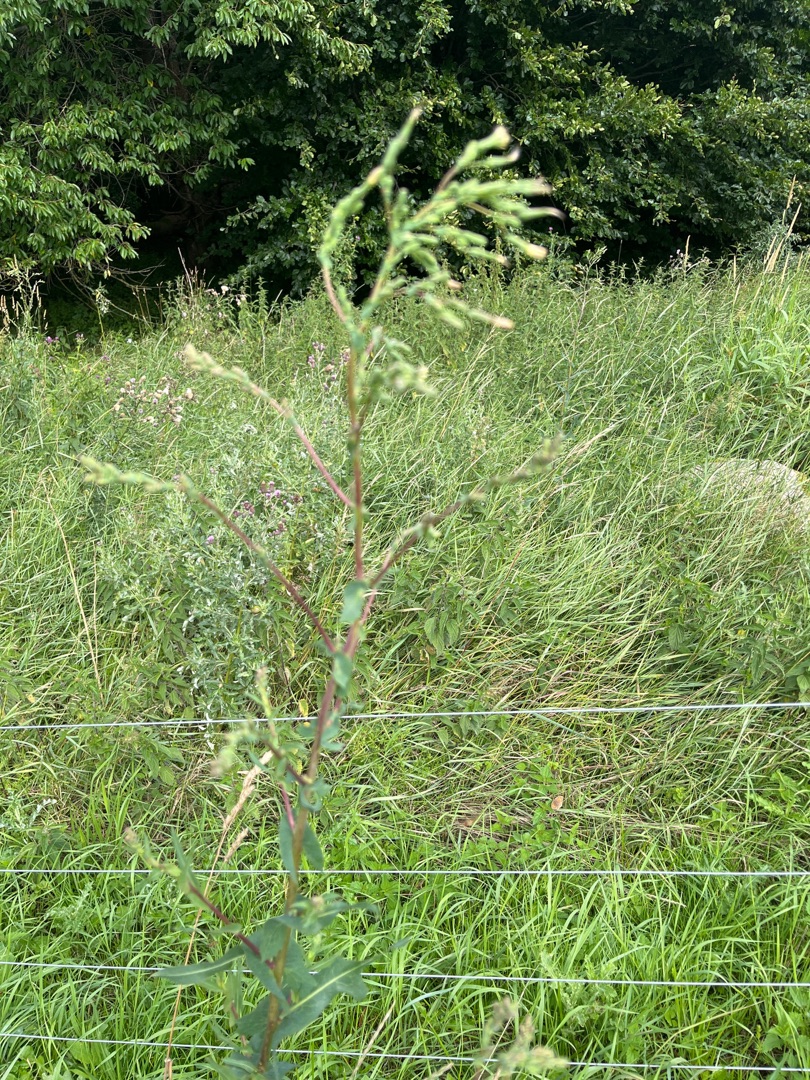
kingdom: Plantae
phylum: Tracheophyta
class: Magnoliopsida
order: Asterales
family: Asteraceae
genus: Lactuca
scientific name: Lactuca serriola
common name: Tornet salat
